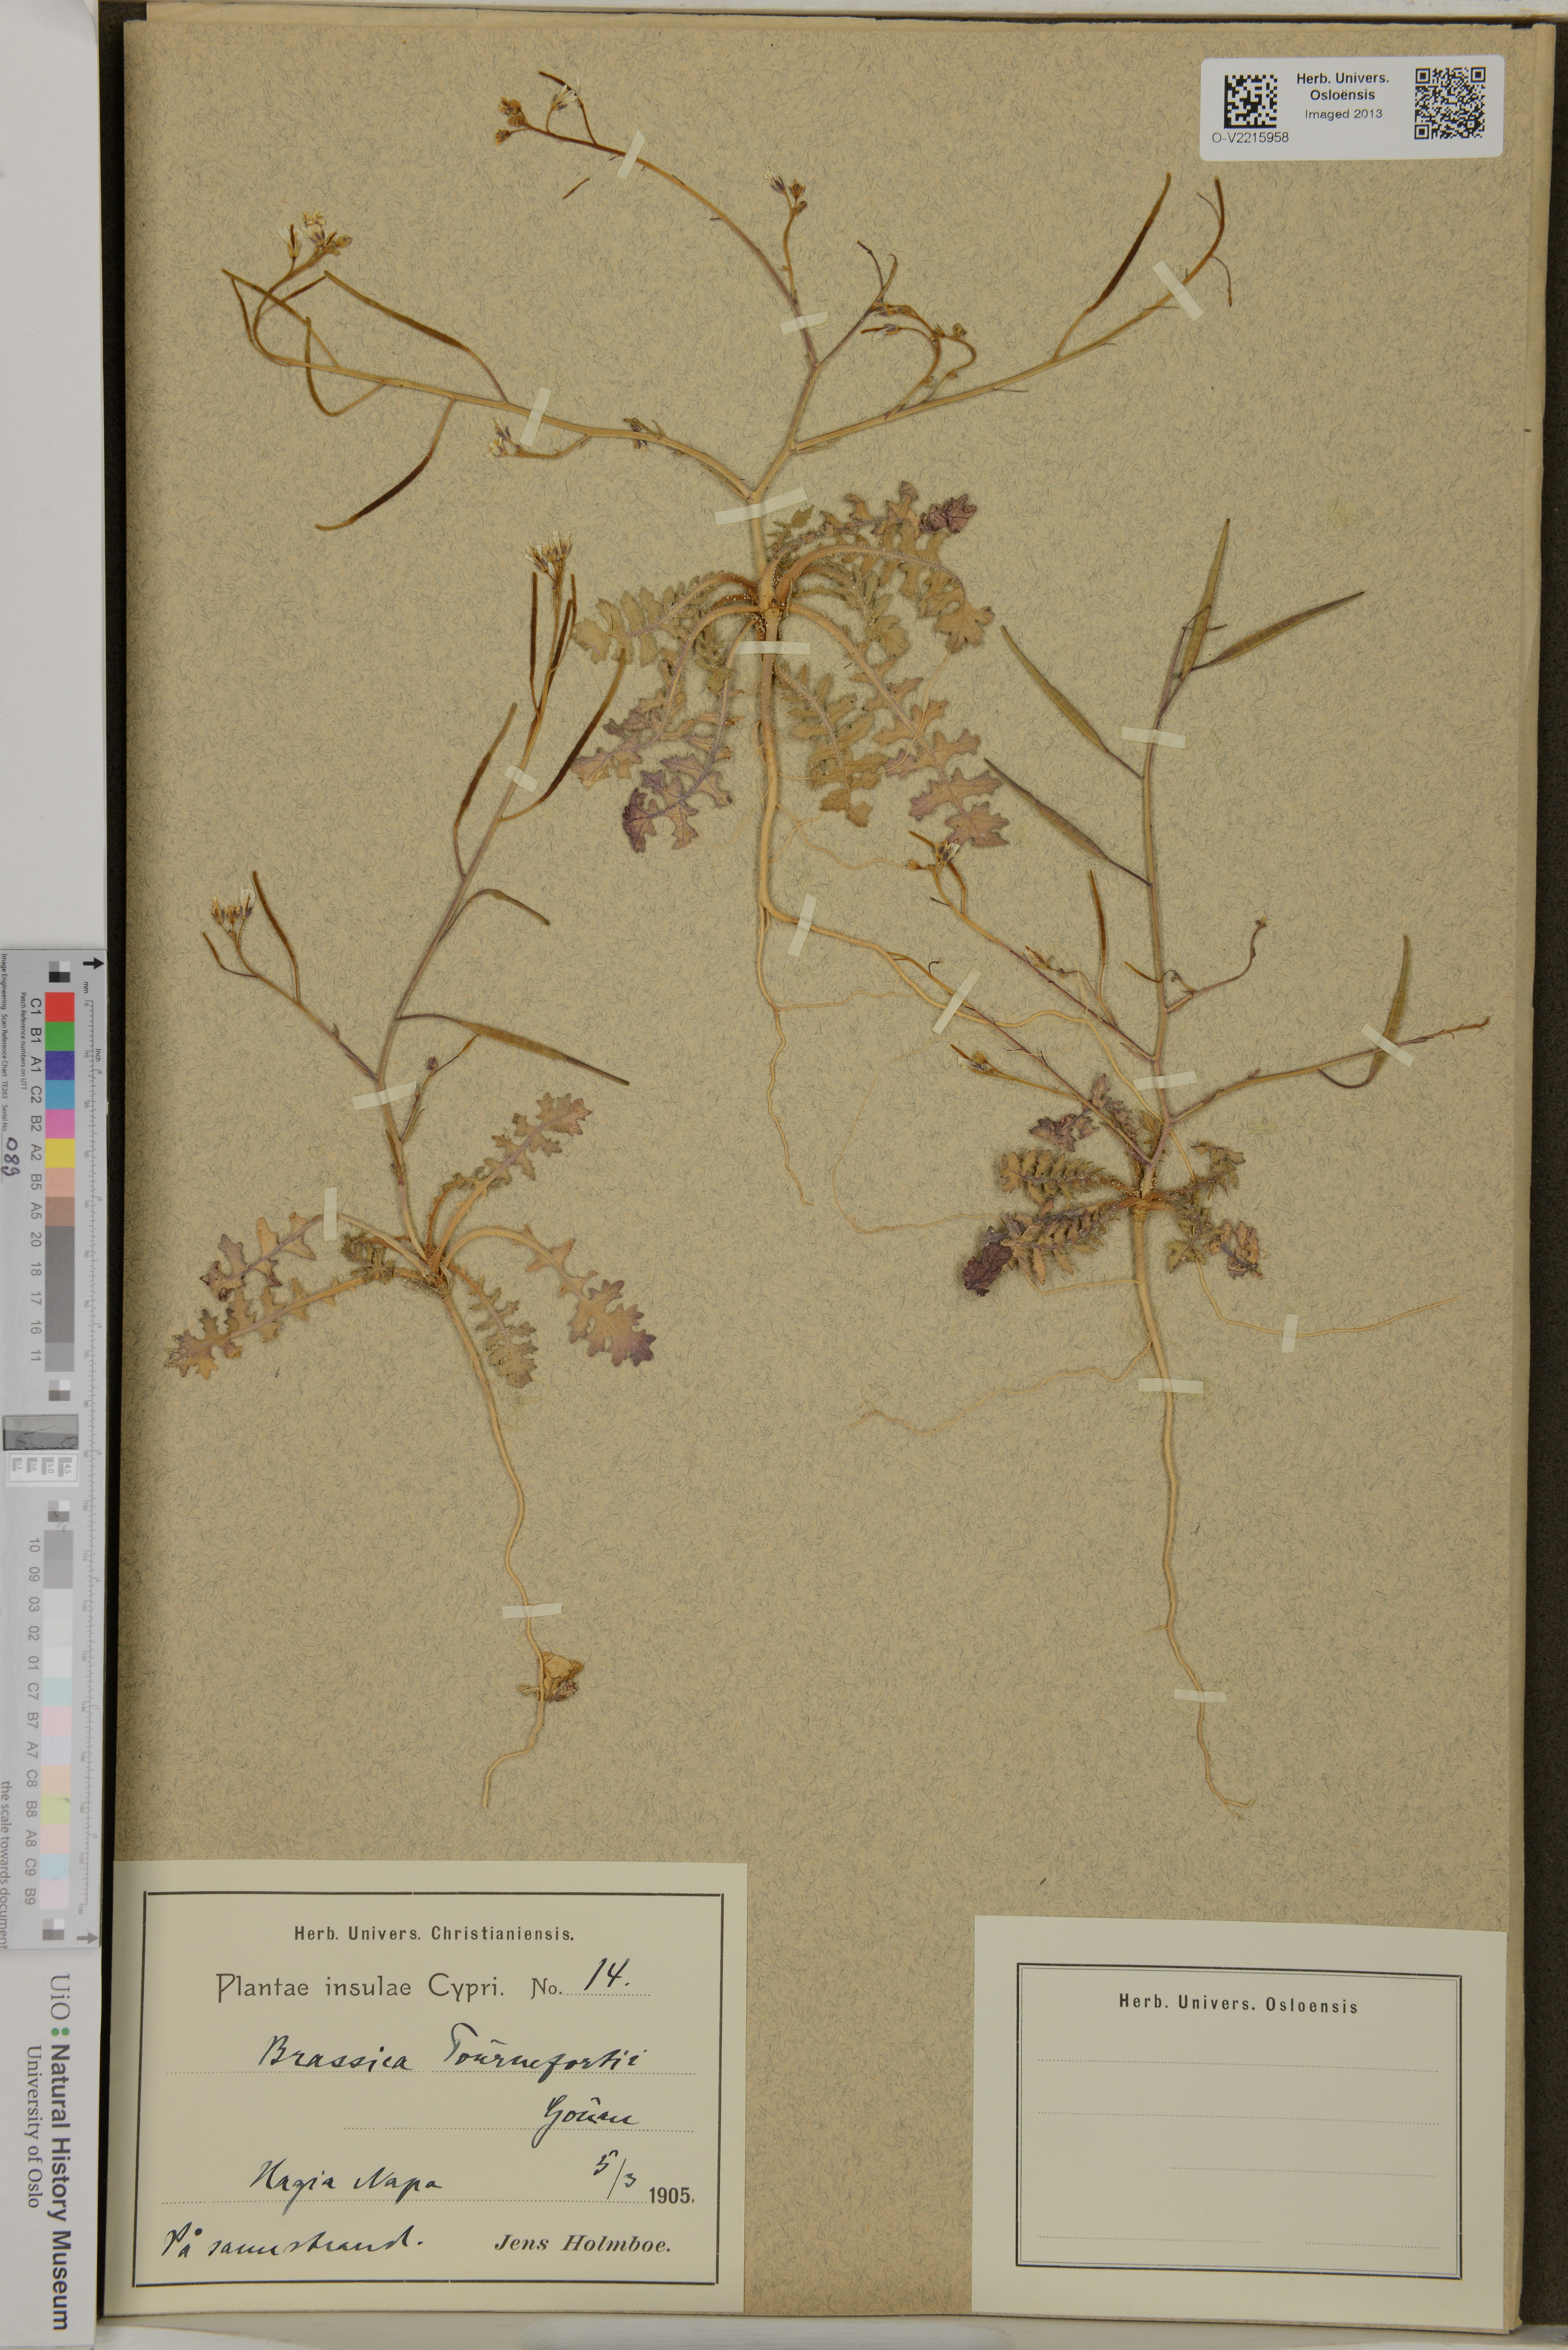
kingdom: Plantae
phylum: Tracheophyta
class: Magnoliopsida
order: Brassicales
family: Brassicaceae
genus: Biscutella
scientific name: Biscutella valentina
